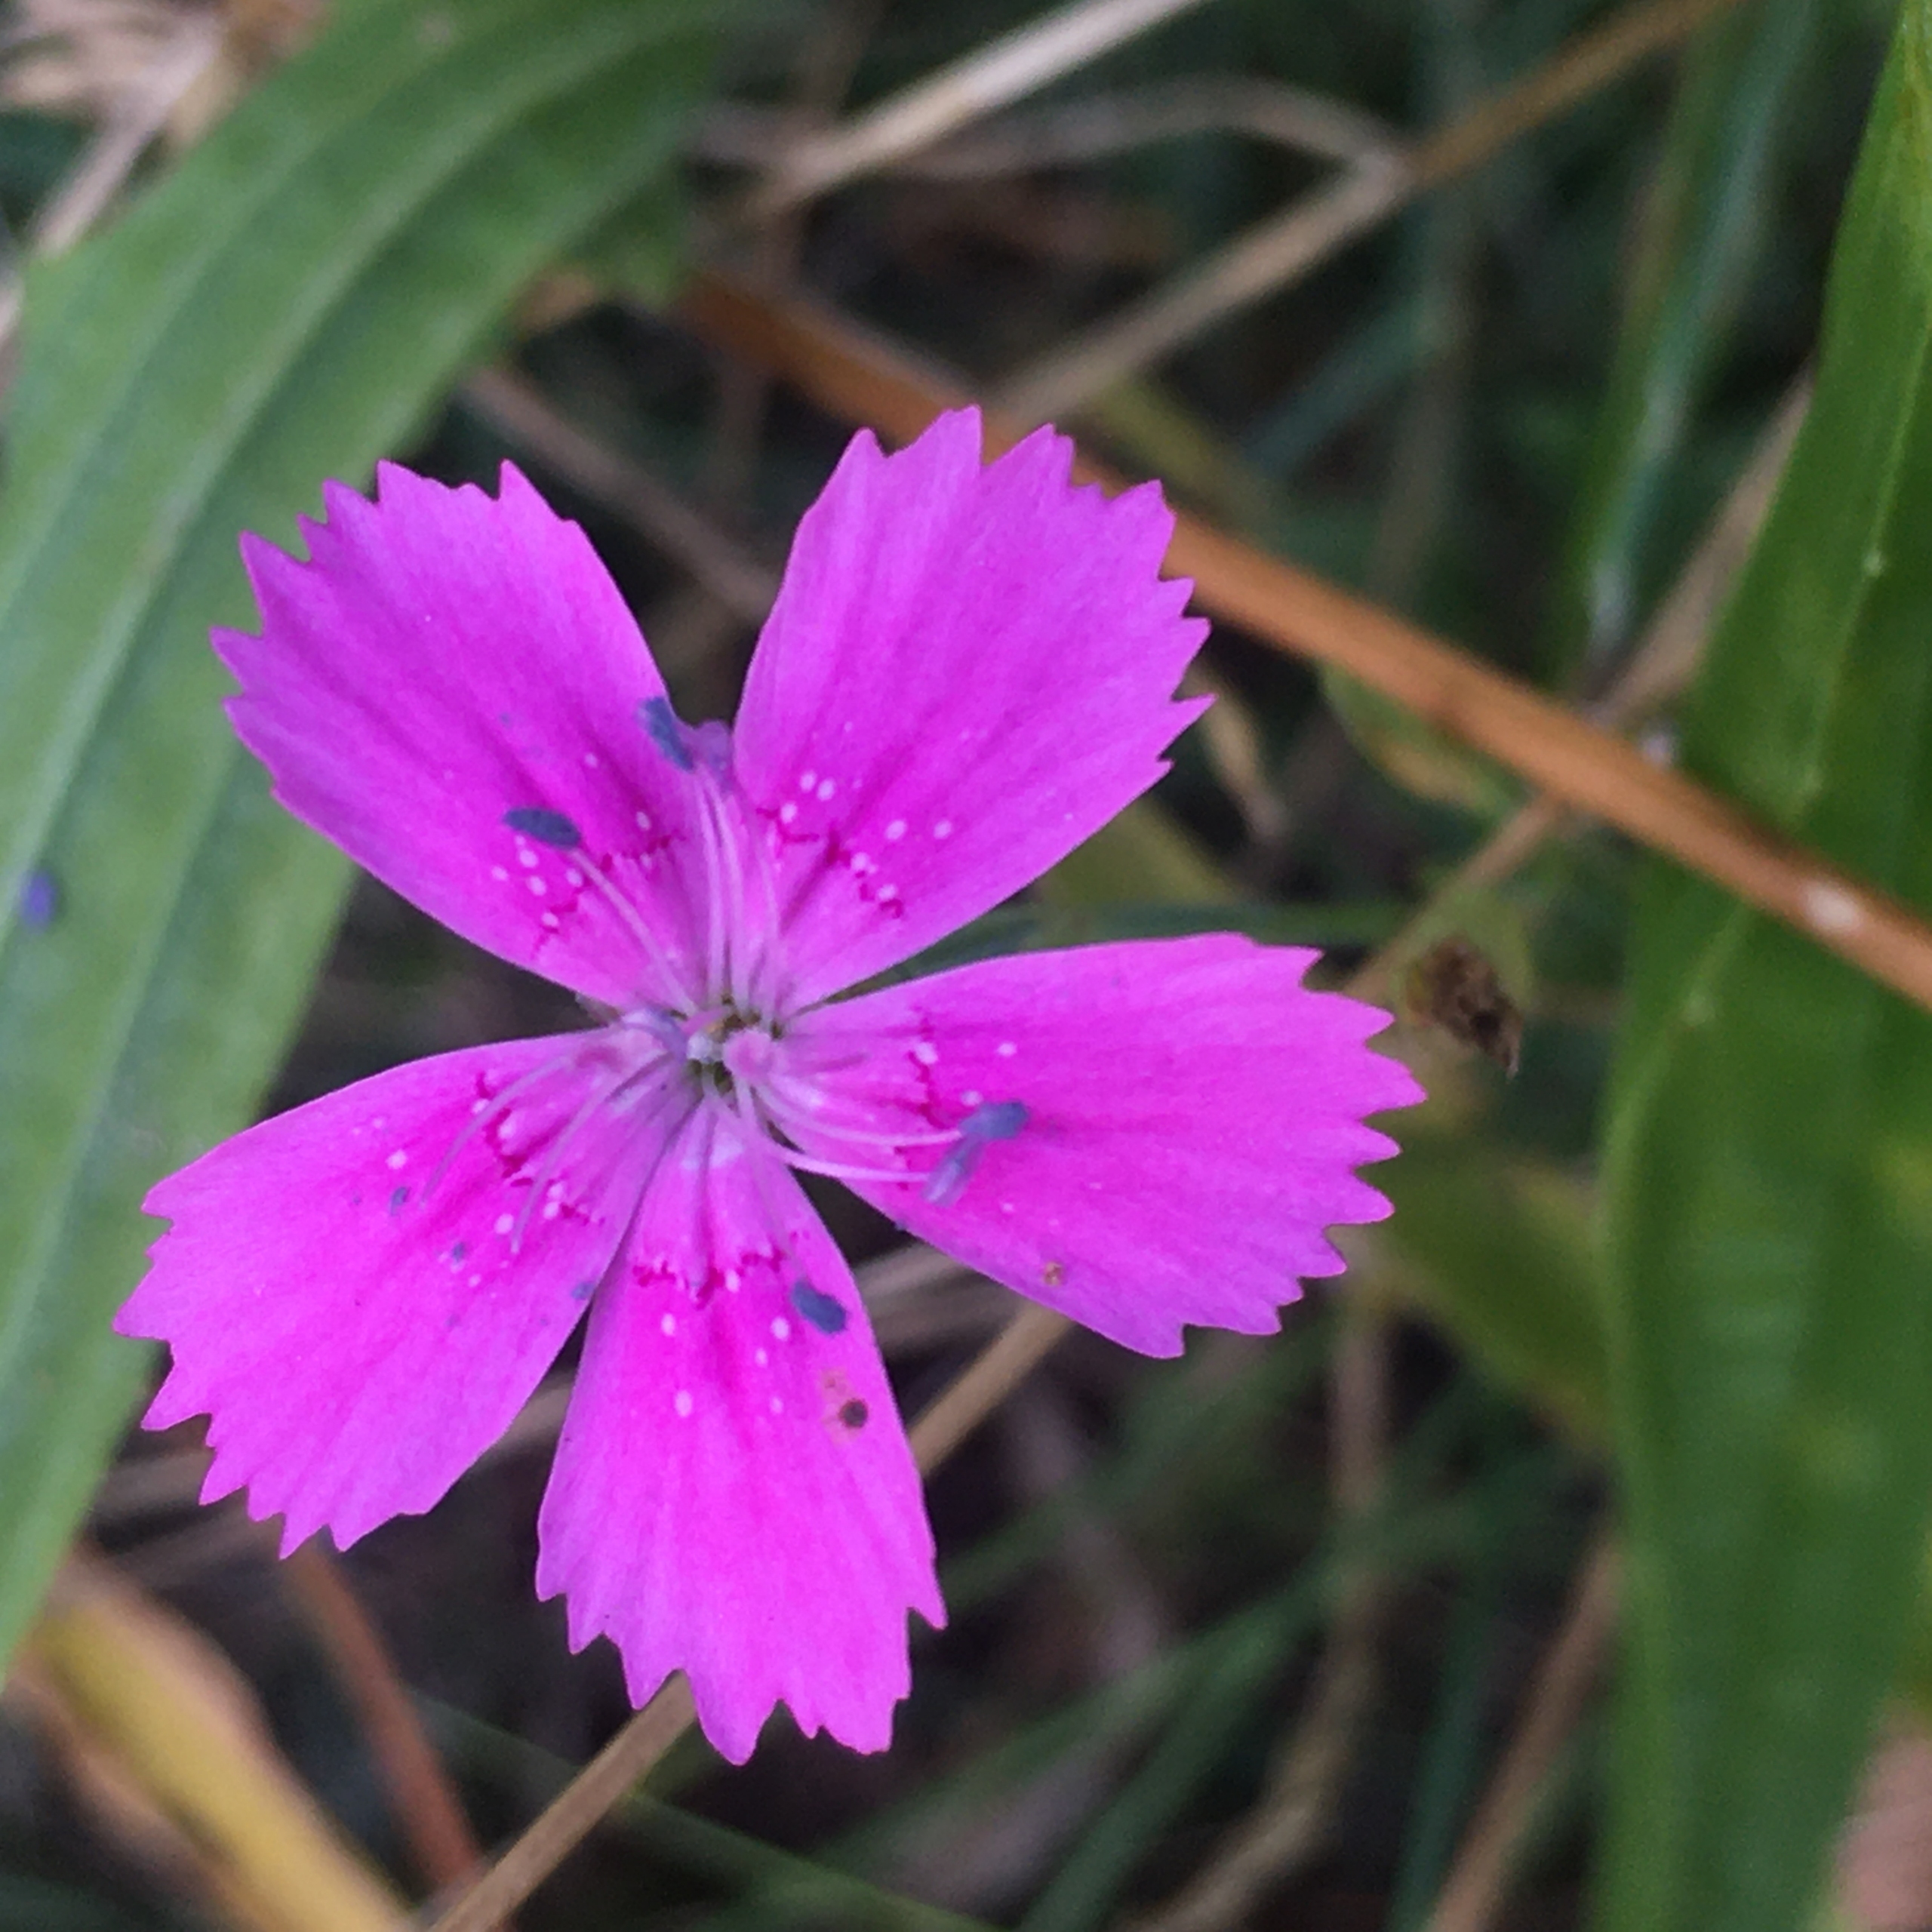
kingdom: Plantae
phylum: Tracheophyta
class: Magnoliopsida
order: Caryophyllales
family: Caryophyllaceae
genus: Dianthus
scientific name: Dianthus deltoides
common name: Bakke-nellike
